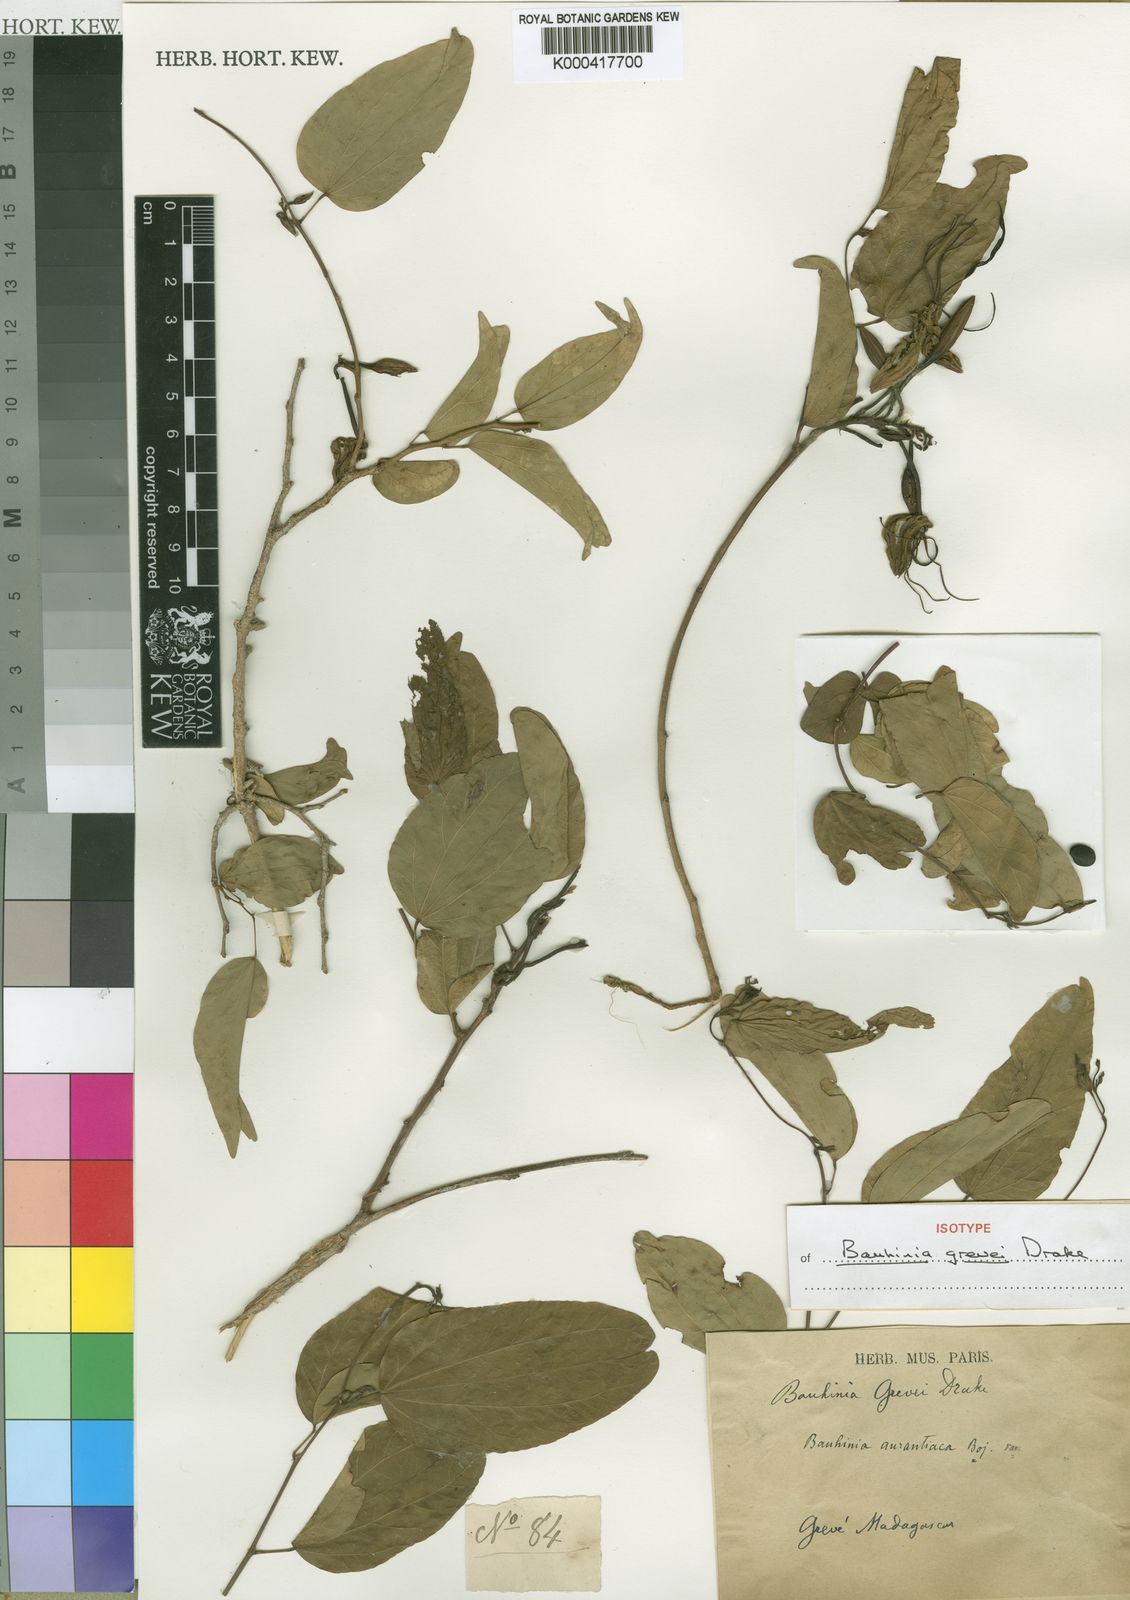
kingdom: Plantae
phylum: Tracheophyta
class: Magnoliopsida
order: Fabales
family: Fabaceae
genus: Bauhinia
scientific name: Bauhinia grevei
